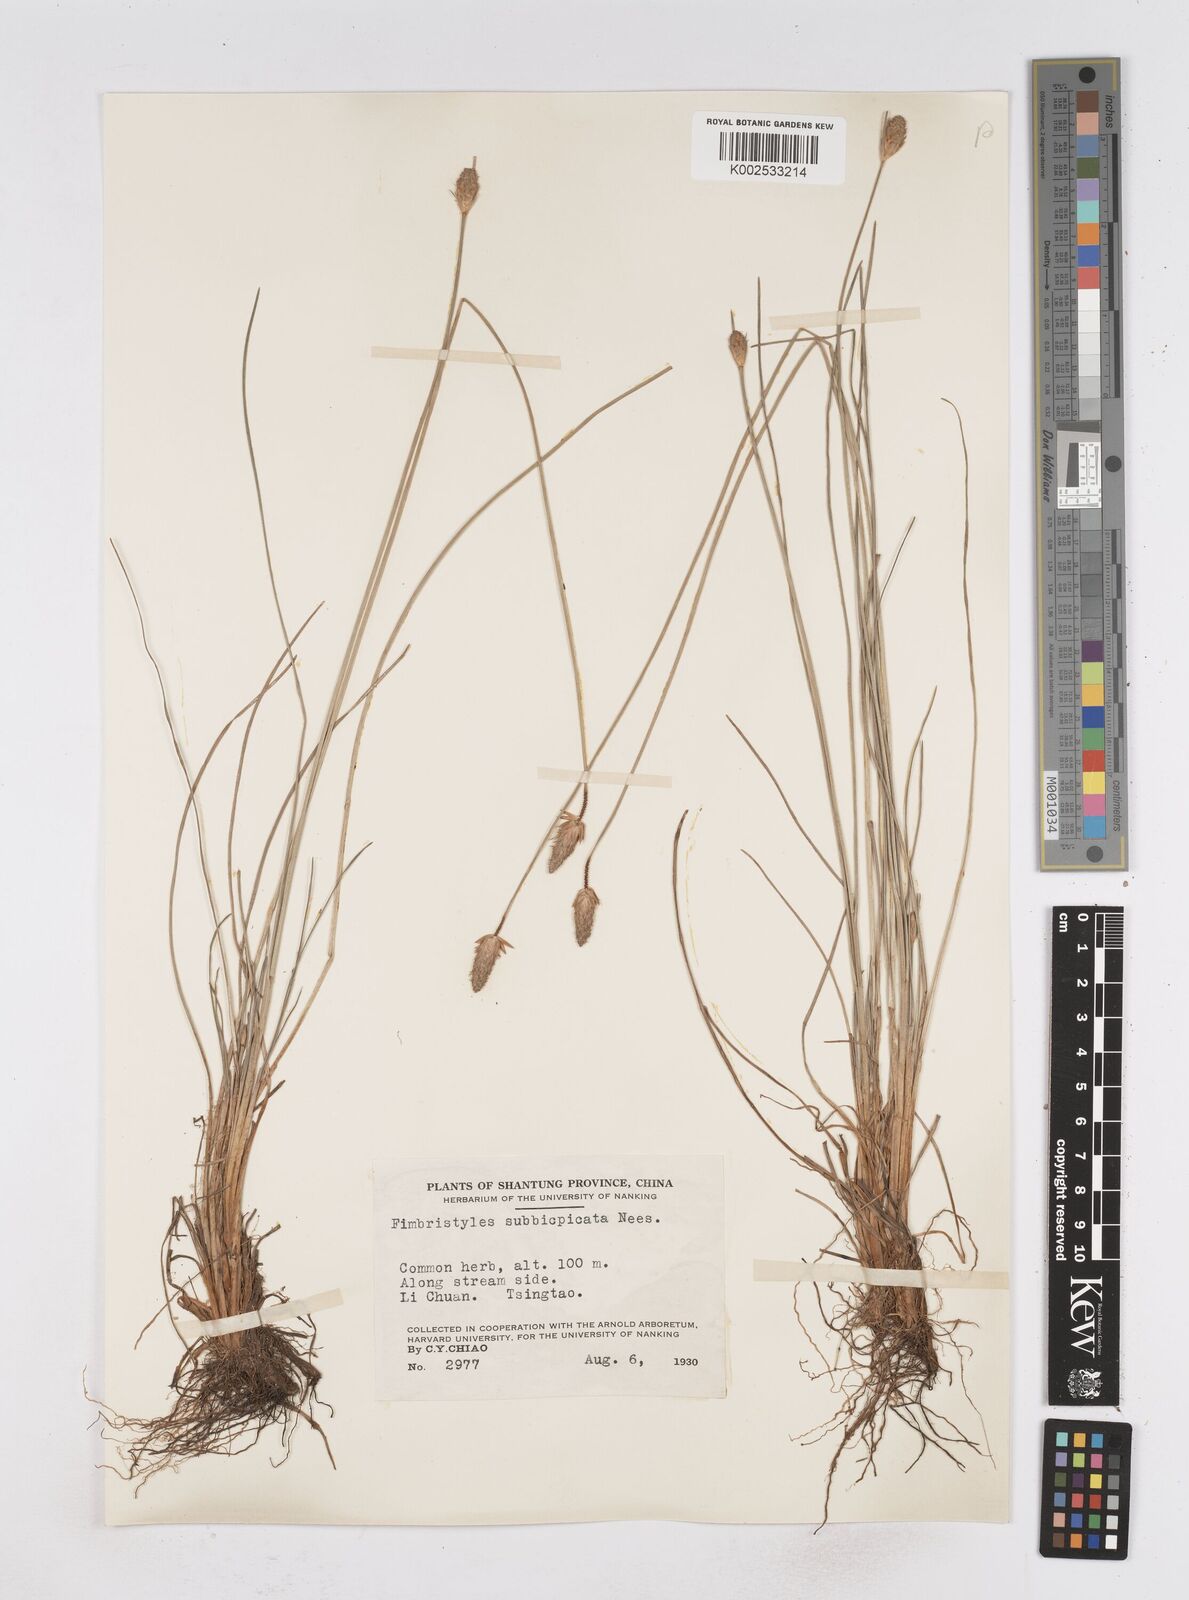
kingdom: Plantae
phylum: Tracheophyta
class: Liliopsida
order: Poales
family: Cyperaceae
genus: Fimbristylis
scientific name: Fimbristylis tristachya
